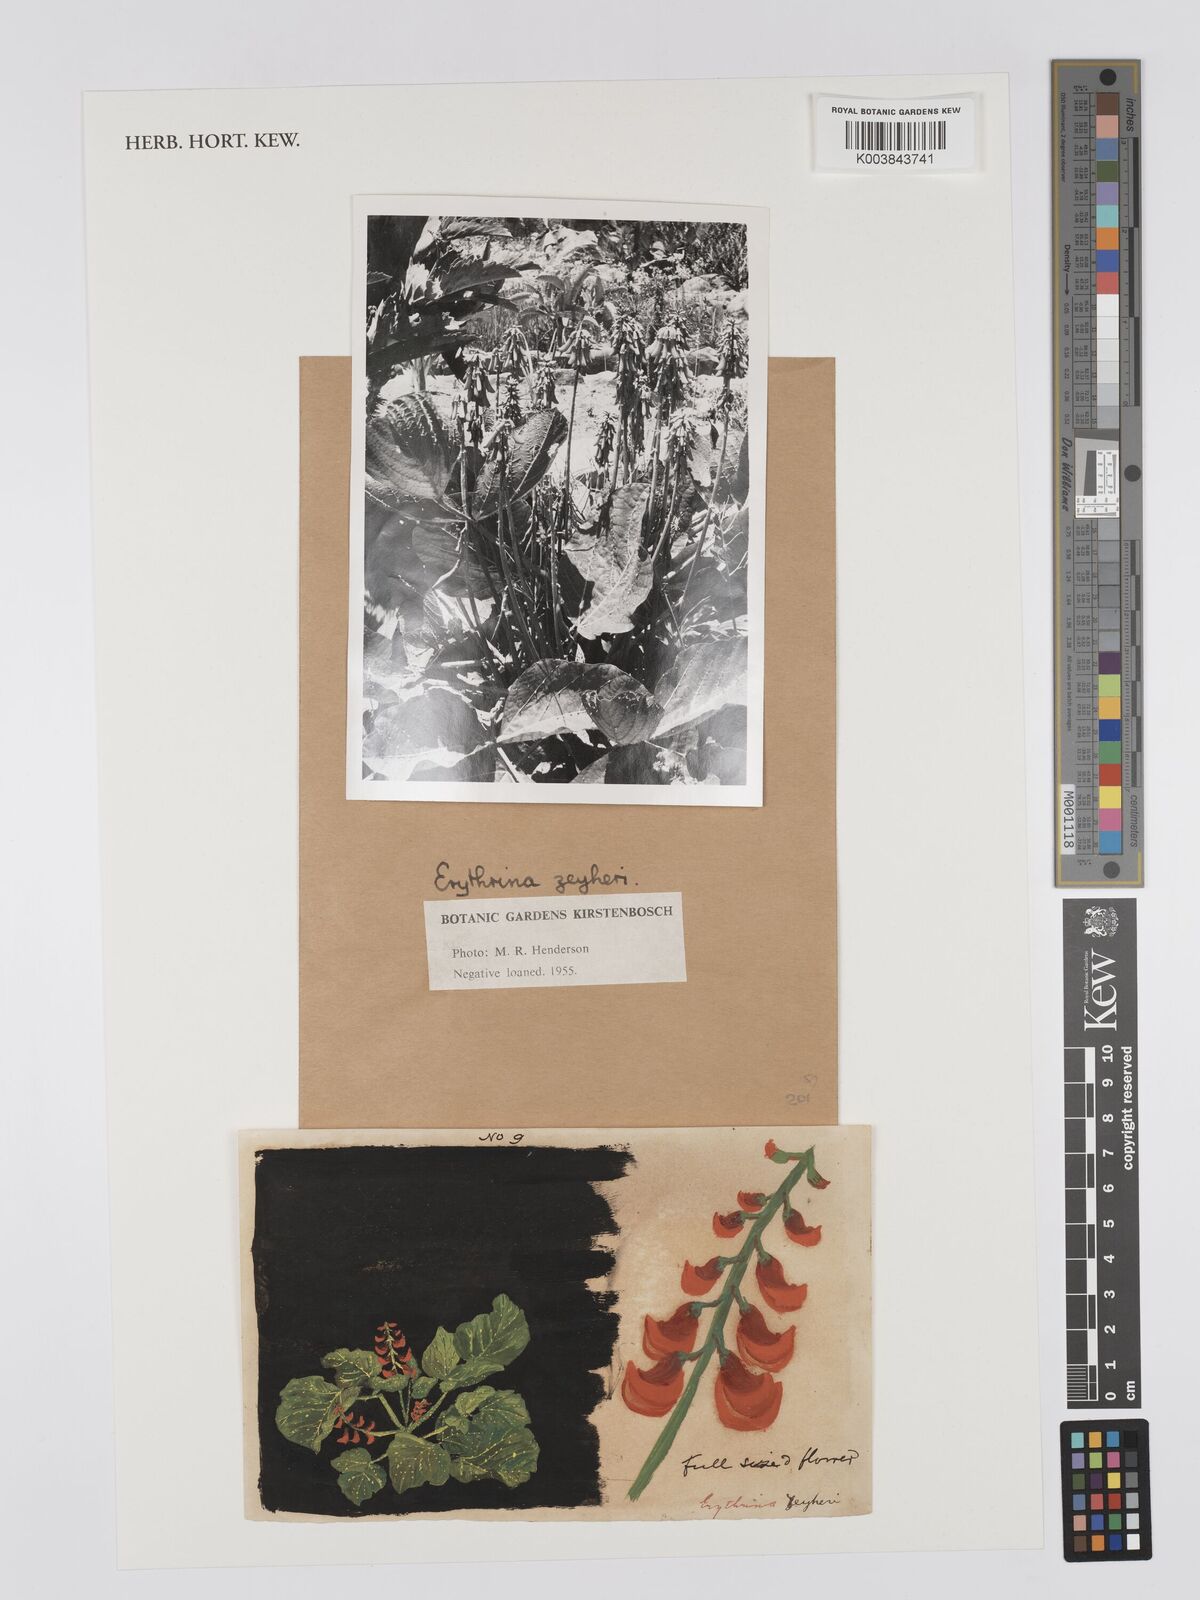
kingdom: Plantae
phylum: Tracheophyta
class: Magnoliopsida
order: Fabales
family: Fabaceae
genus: Erythrina
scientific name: Erythrina zeyheri
